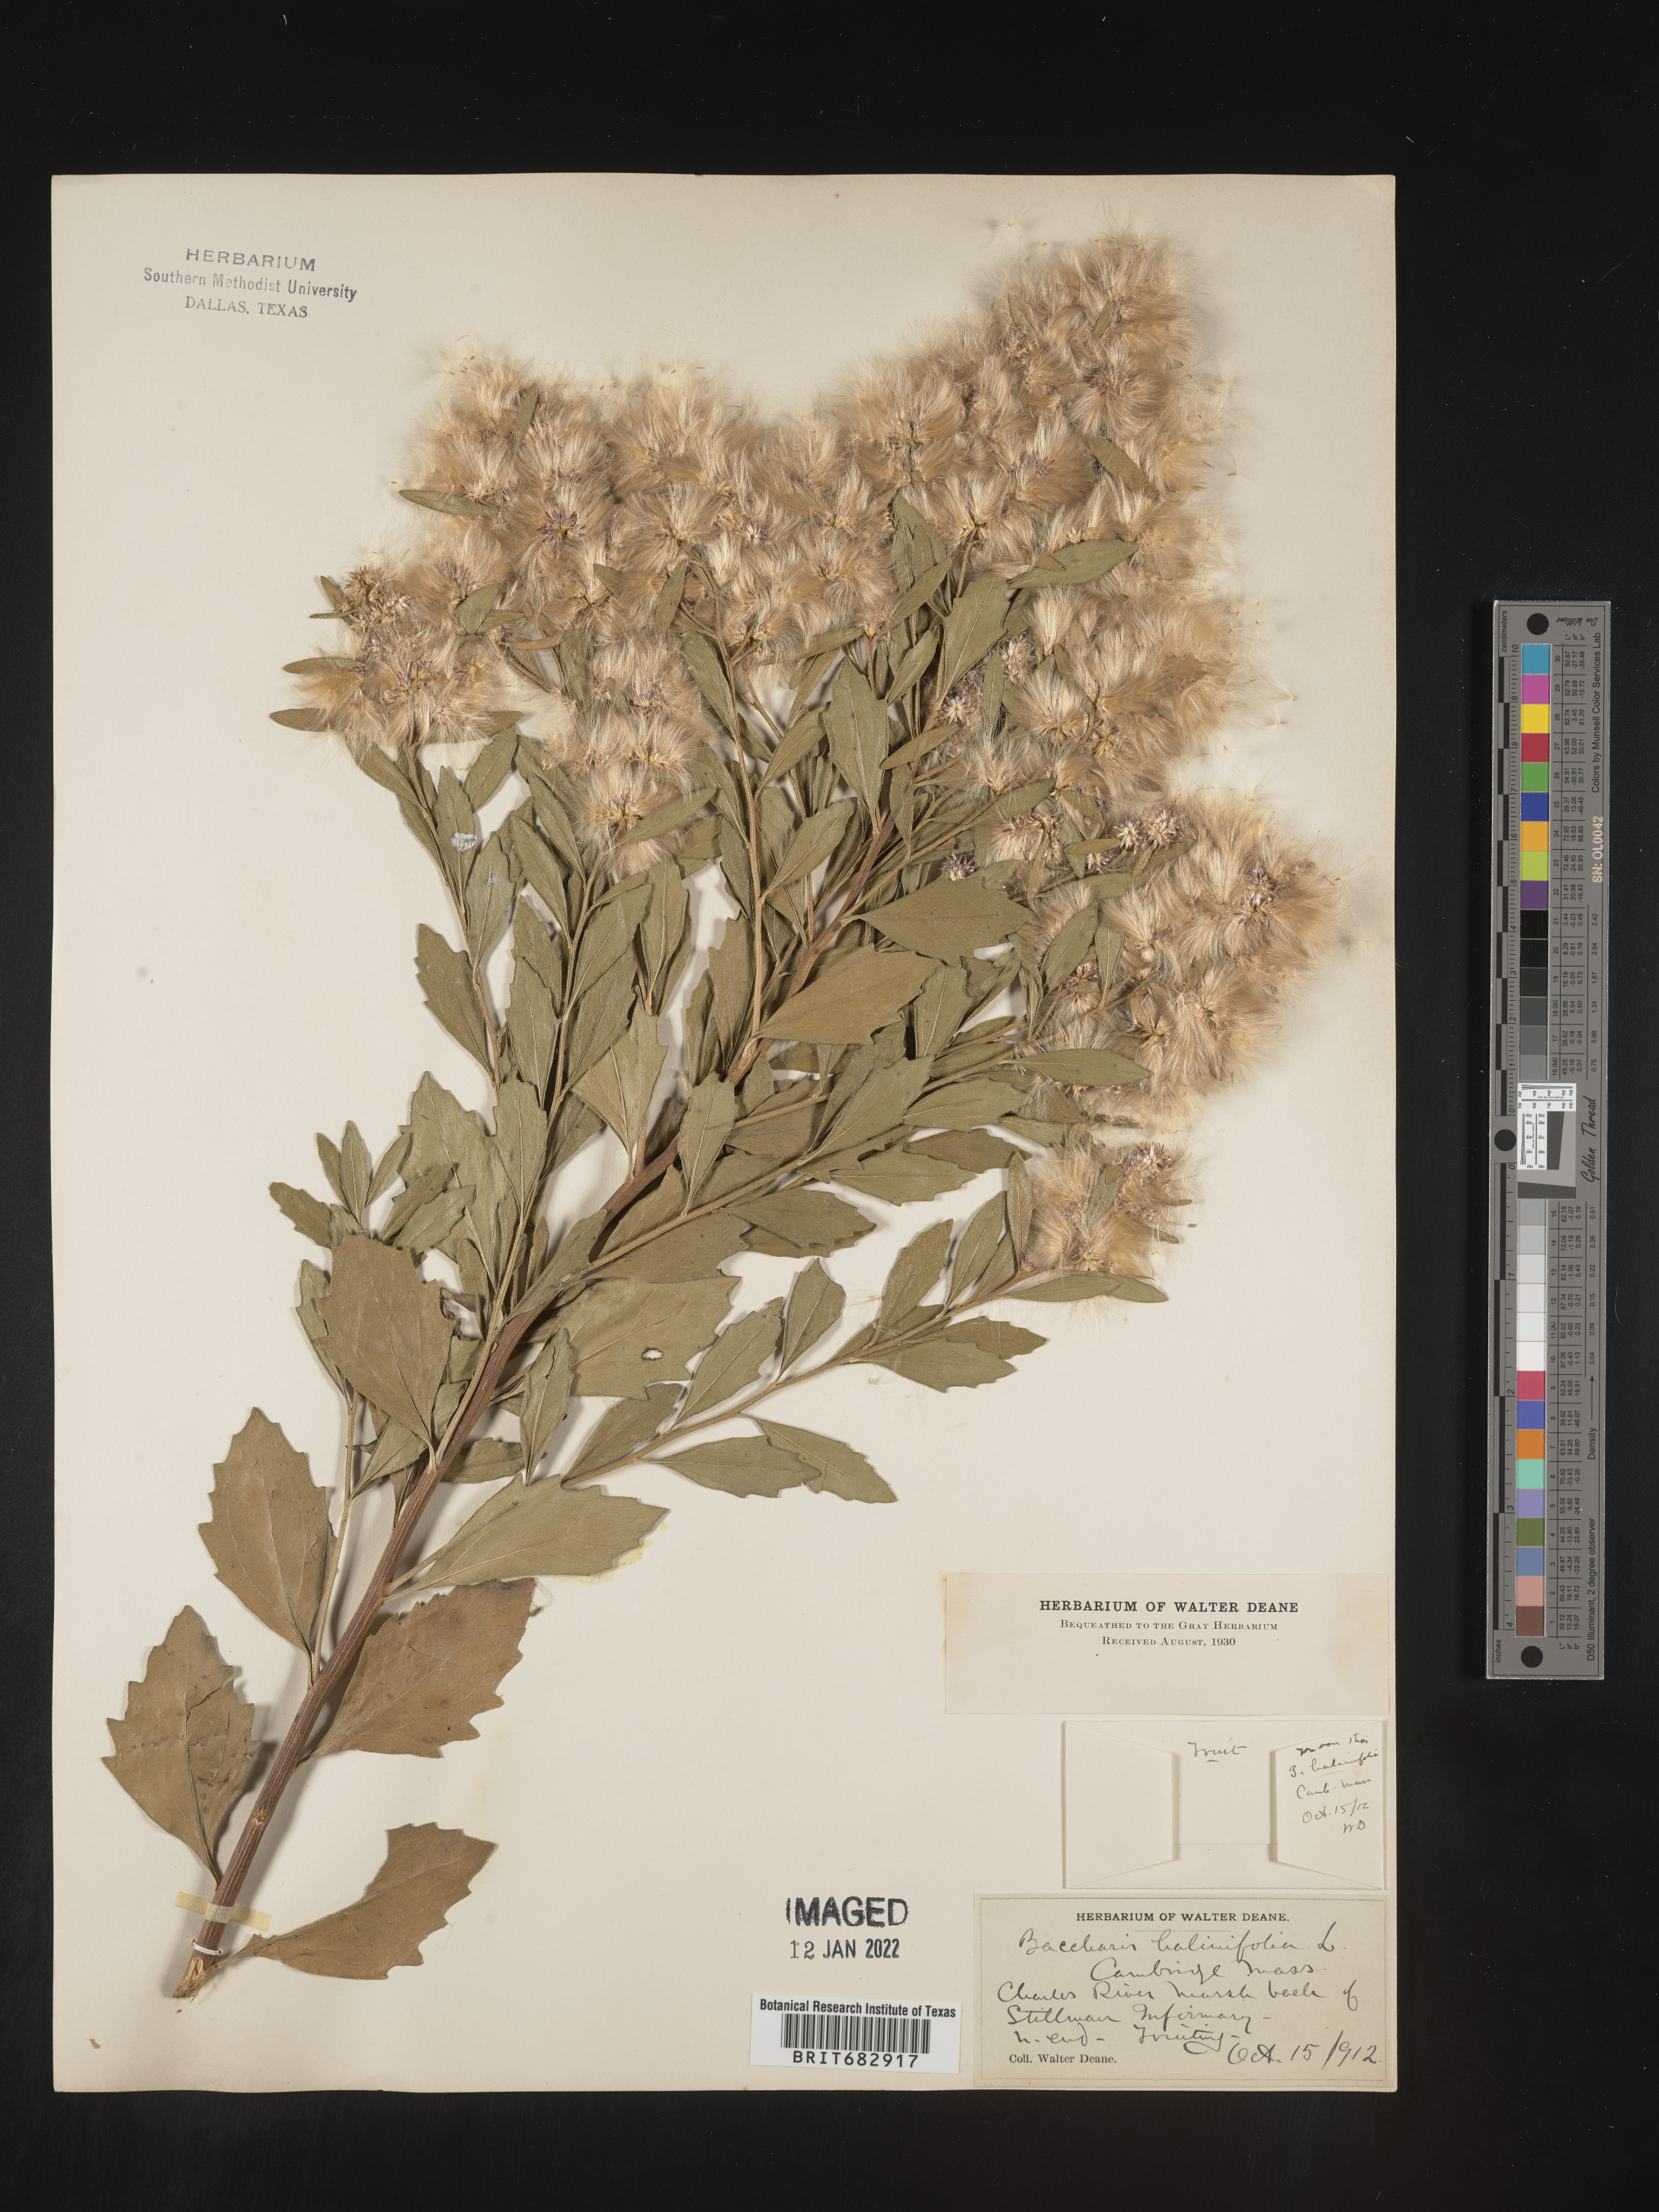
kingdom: Plantae
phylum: Tracheophyta
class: Magnoliopsida
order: Asterales
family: Asteraceae
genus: Nidorella
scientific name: Nidorella ivifolia
